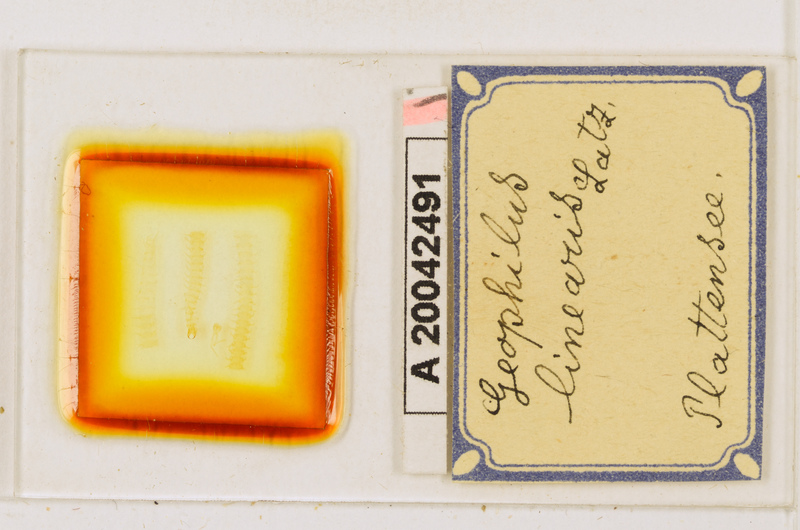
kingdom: Animalia
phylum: Arthropoda
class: Chilopoda
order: Geophilomorpha
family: Geophilidae
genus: Stenotaenia
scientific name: Stenotaenia linearis
